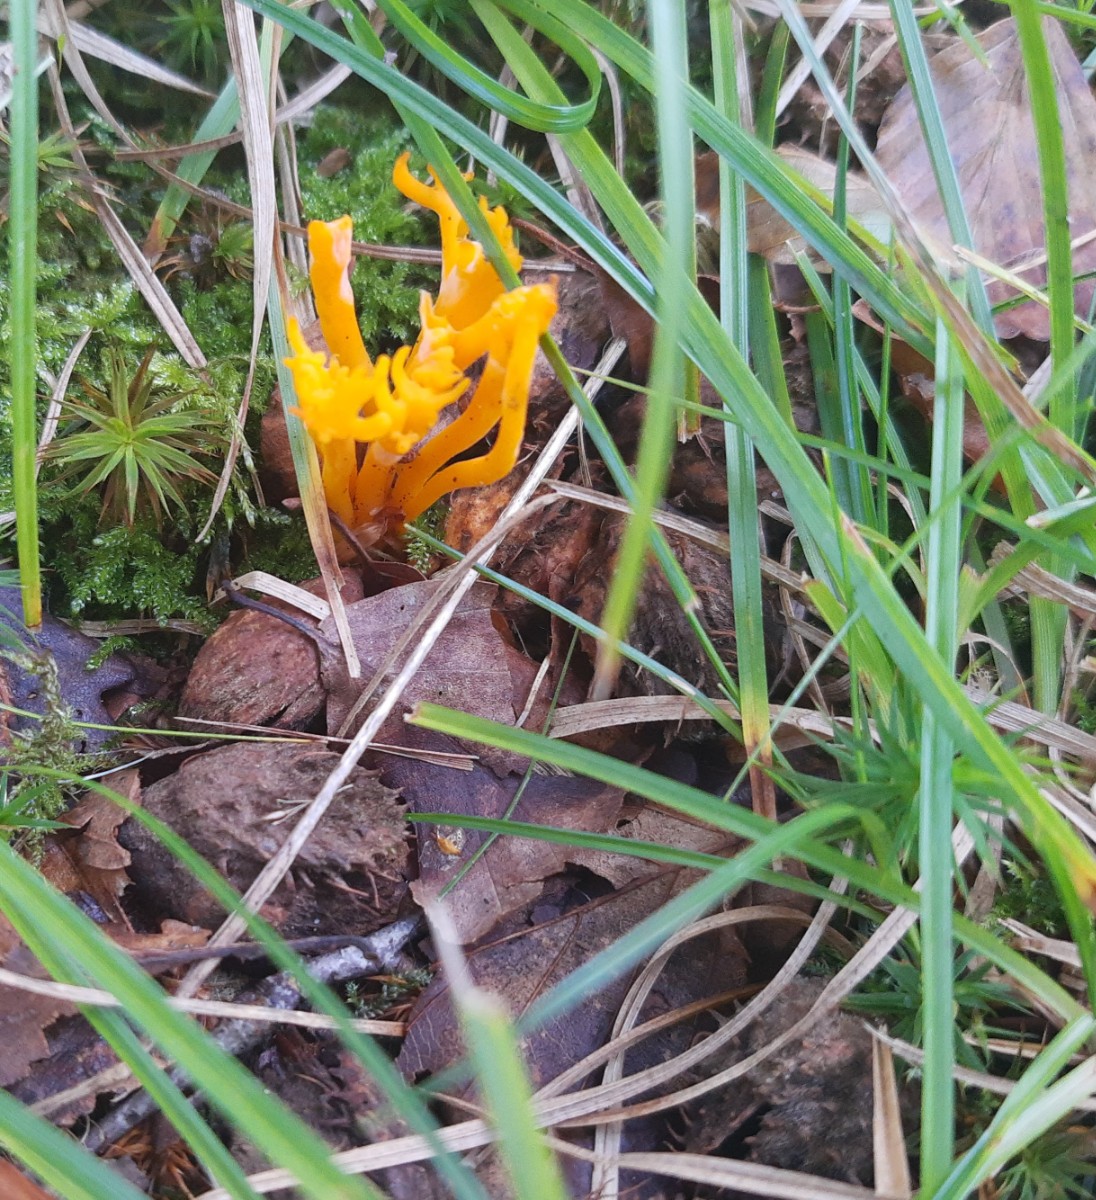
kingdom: Fungi
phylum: Basidiomycota
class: Dacrymycetes
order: Dacrymycetales
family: Dacrymycetaceae
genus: Calocera
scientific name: Calocera viscosa
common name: almindelig guldgaffel
